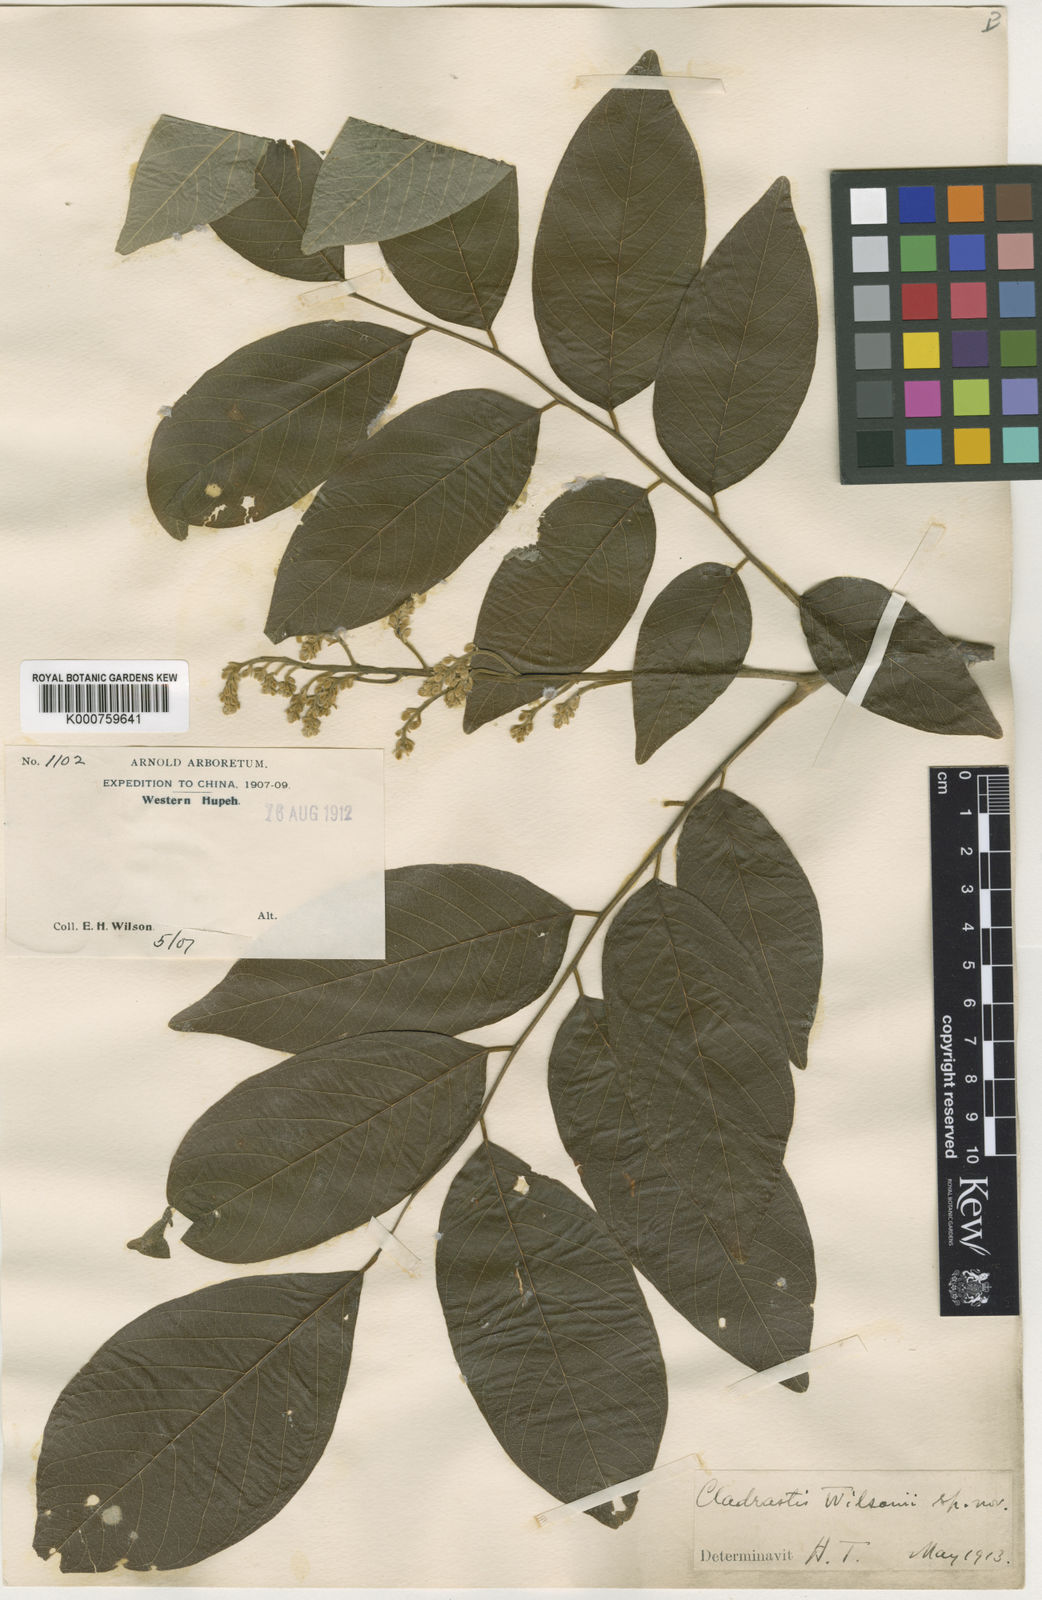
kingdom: Plantae
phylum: Tracheophyta
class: Magnoliopsida
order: Fabales
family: Fabaceae
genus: Cladrastis
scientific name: Cladrastis wilsonii
